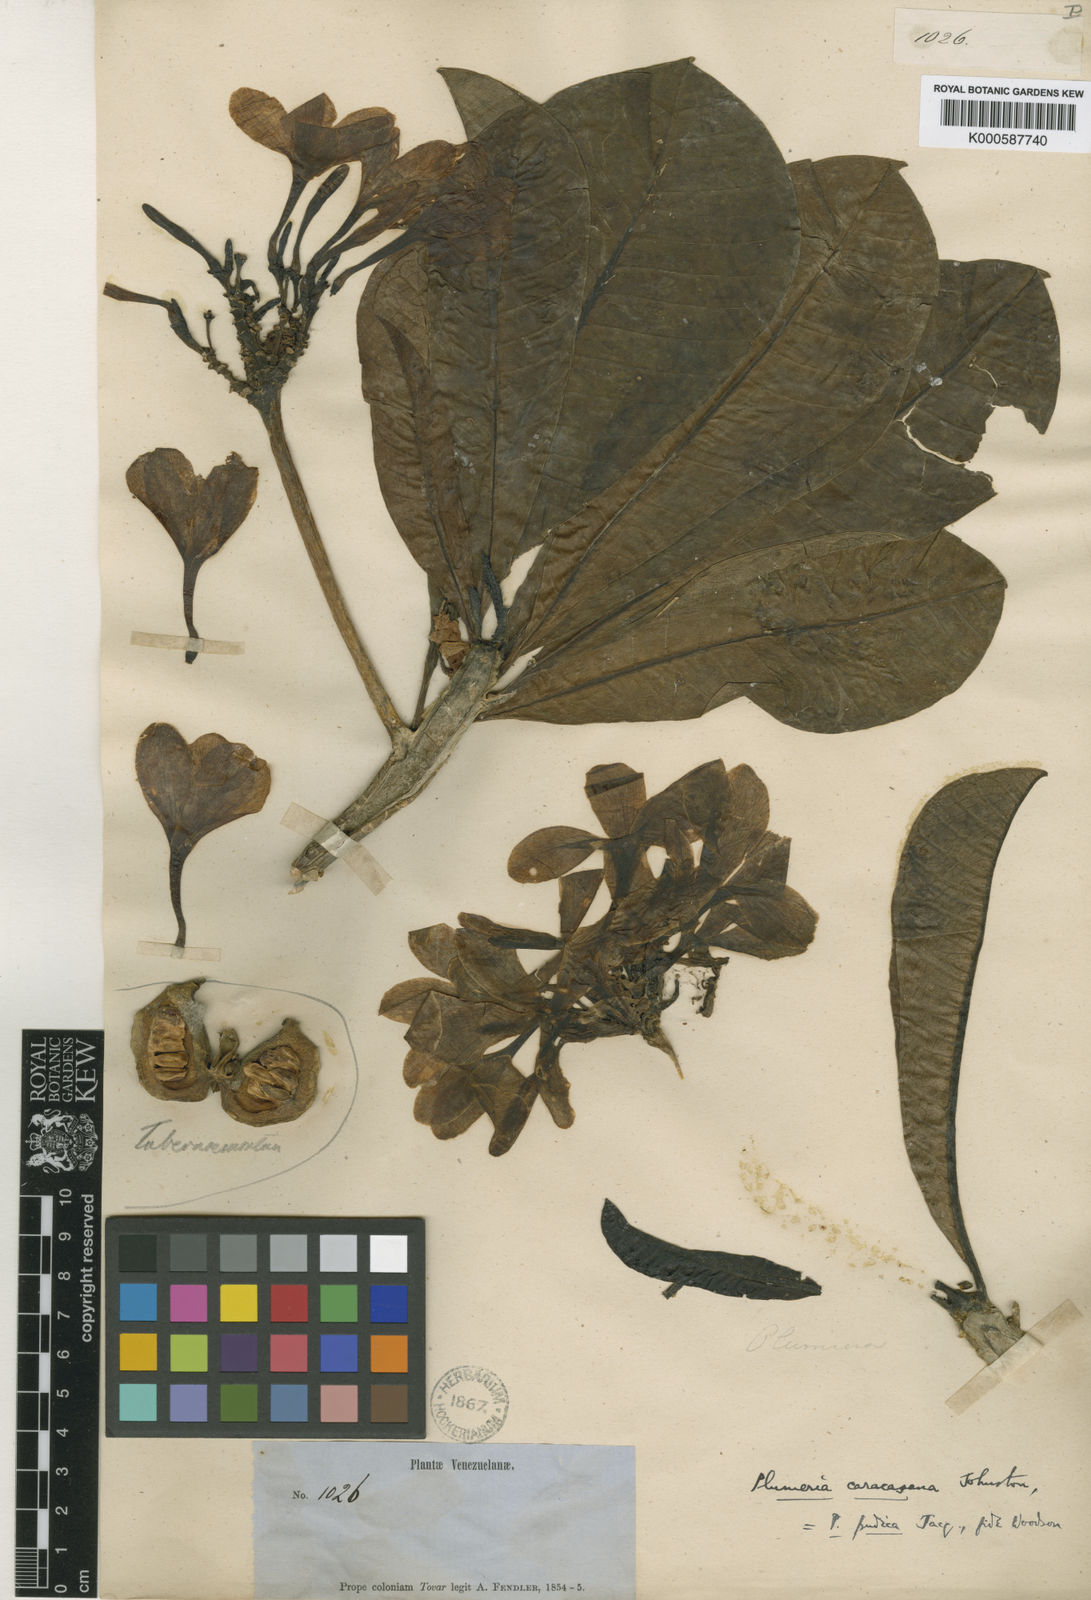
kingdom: Plantae
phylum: Tracheophyta
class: Magnoliopsida
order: Gentianales
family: Apocynaceae
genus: Plumeria
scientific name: Plumeria pudica
